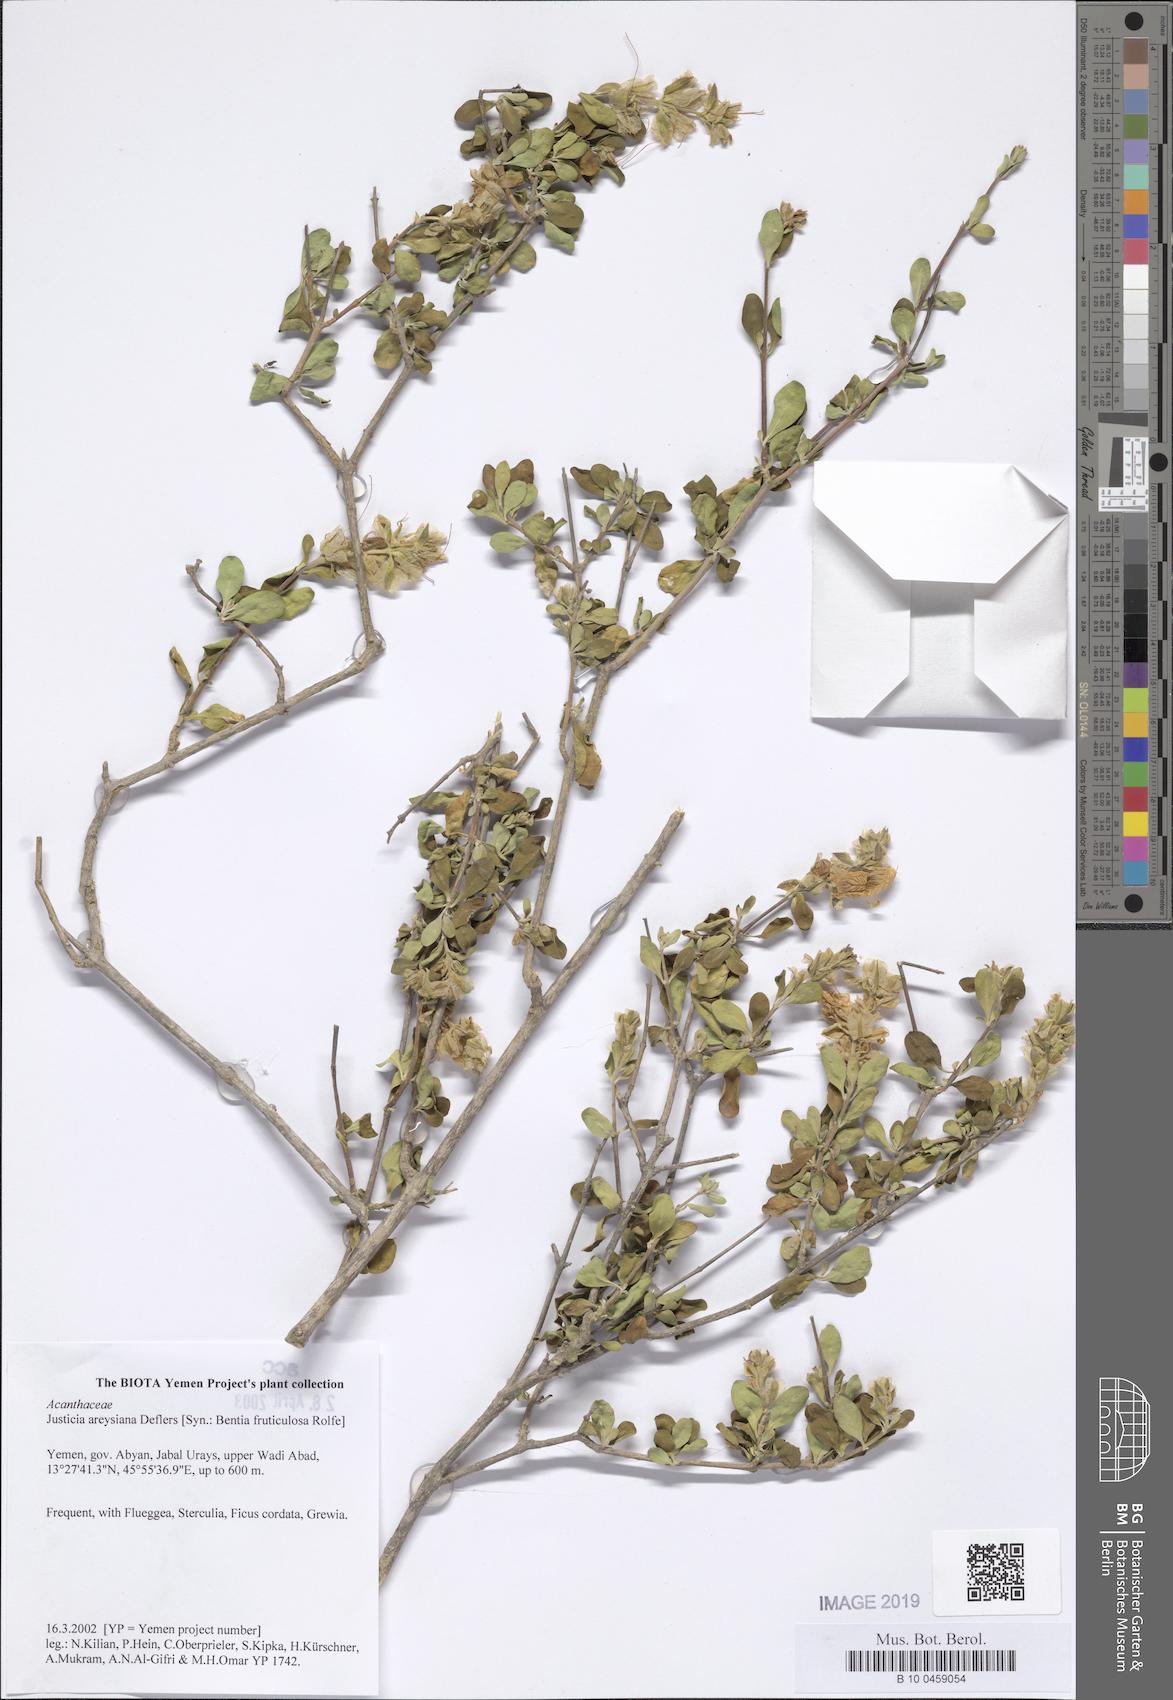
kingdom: Plantae
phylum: Tracheophyta
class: Magnoliopsida
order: Lamiales
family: Acanthaceae
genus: Justicia
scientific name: Justicia areysiana
